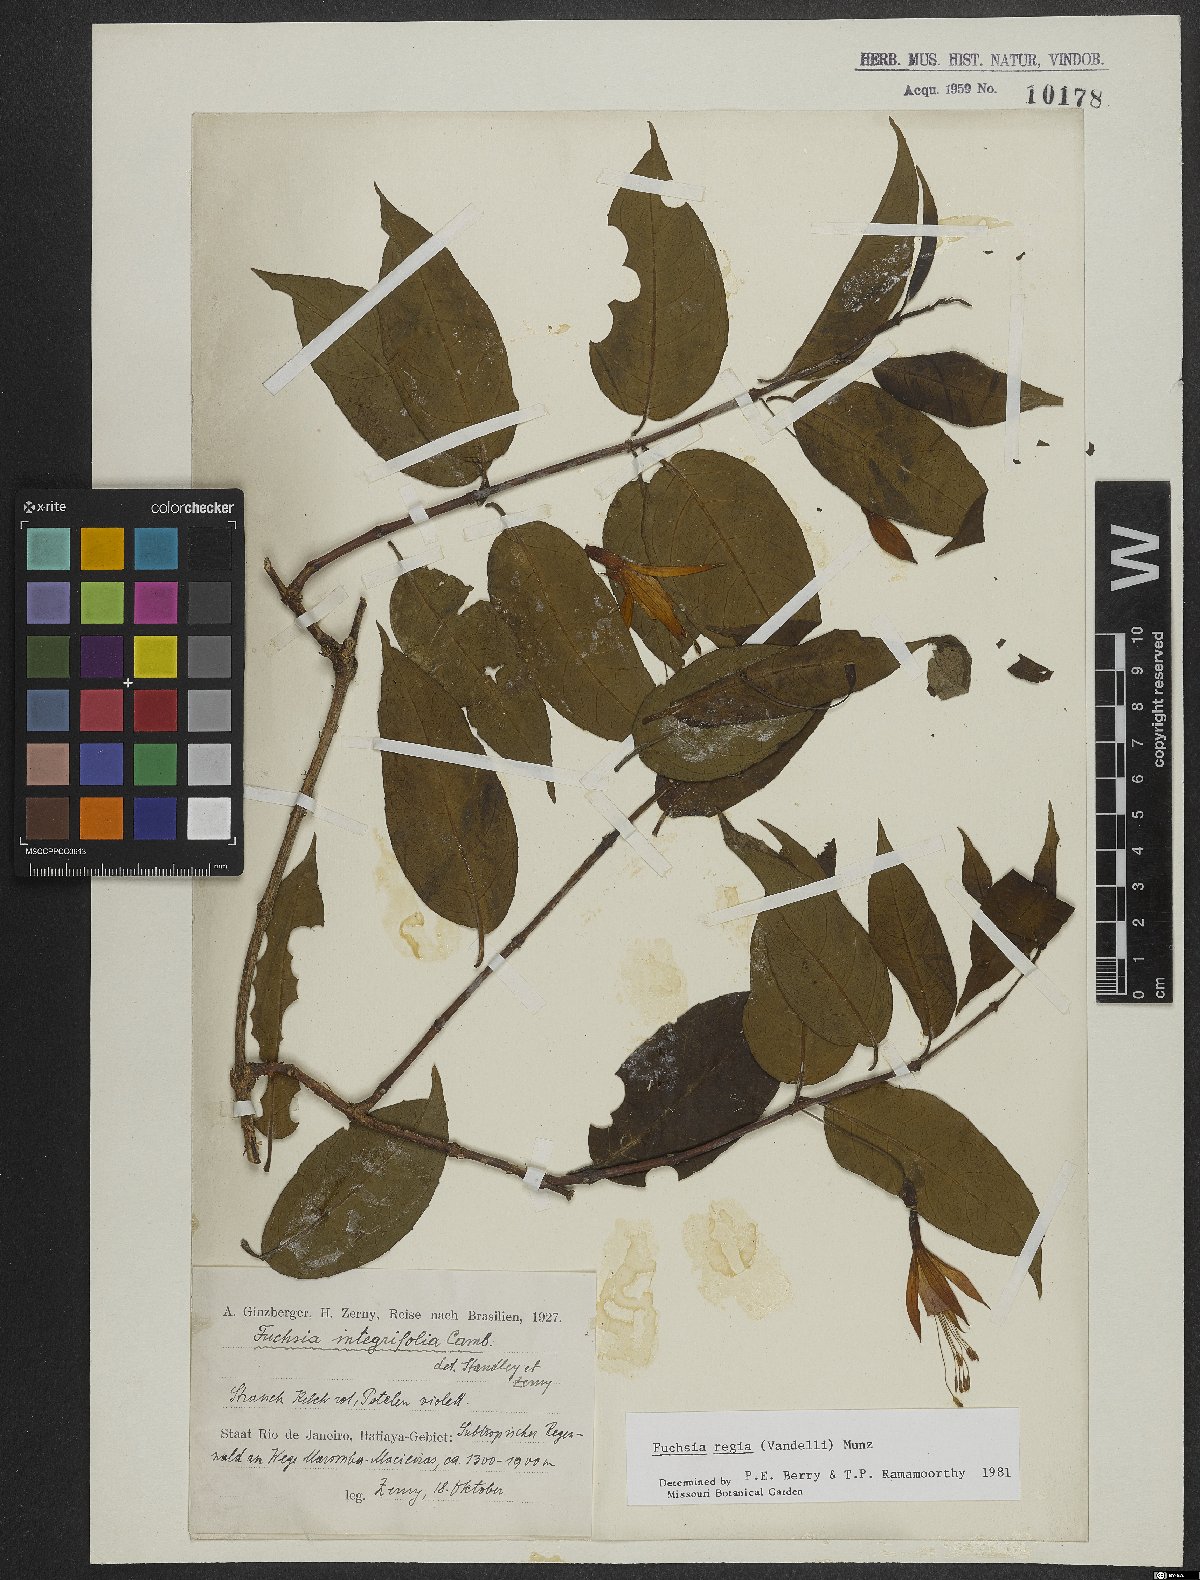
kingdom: Plantae
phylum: Tracheophyta
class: Magnoliopsida
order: Myrtales
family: Onagraceae
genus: Fuchsia
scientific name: Fuchsia regia
